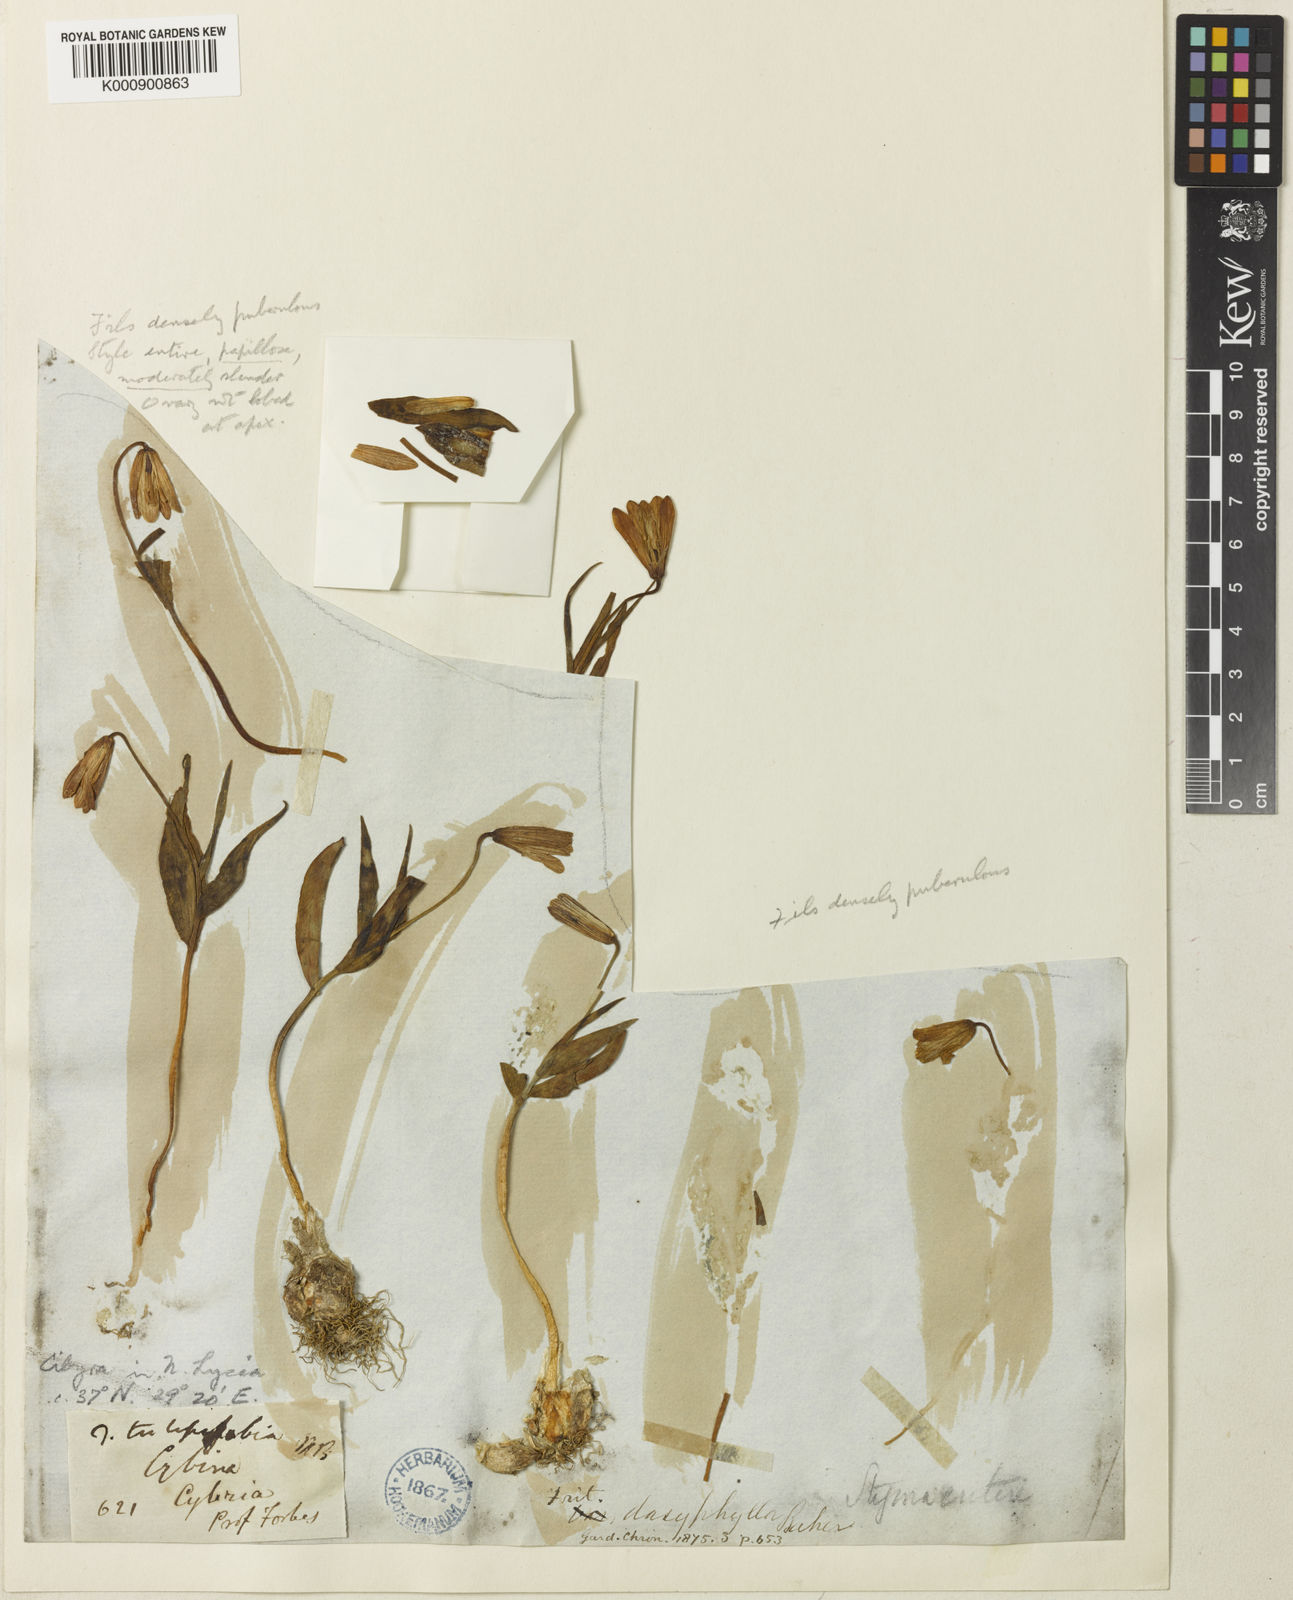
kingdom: Plantae
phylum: Tracheophyta
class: Liliopsida
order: Liliales
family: Liliaceae
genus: Fritillaria
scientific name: Fritillaria bithynica
